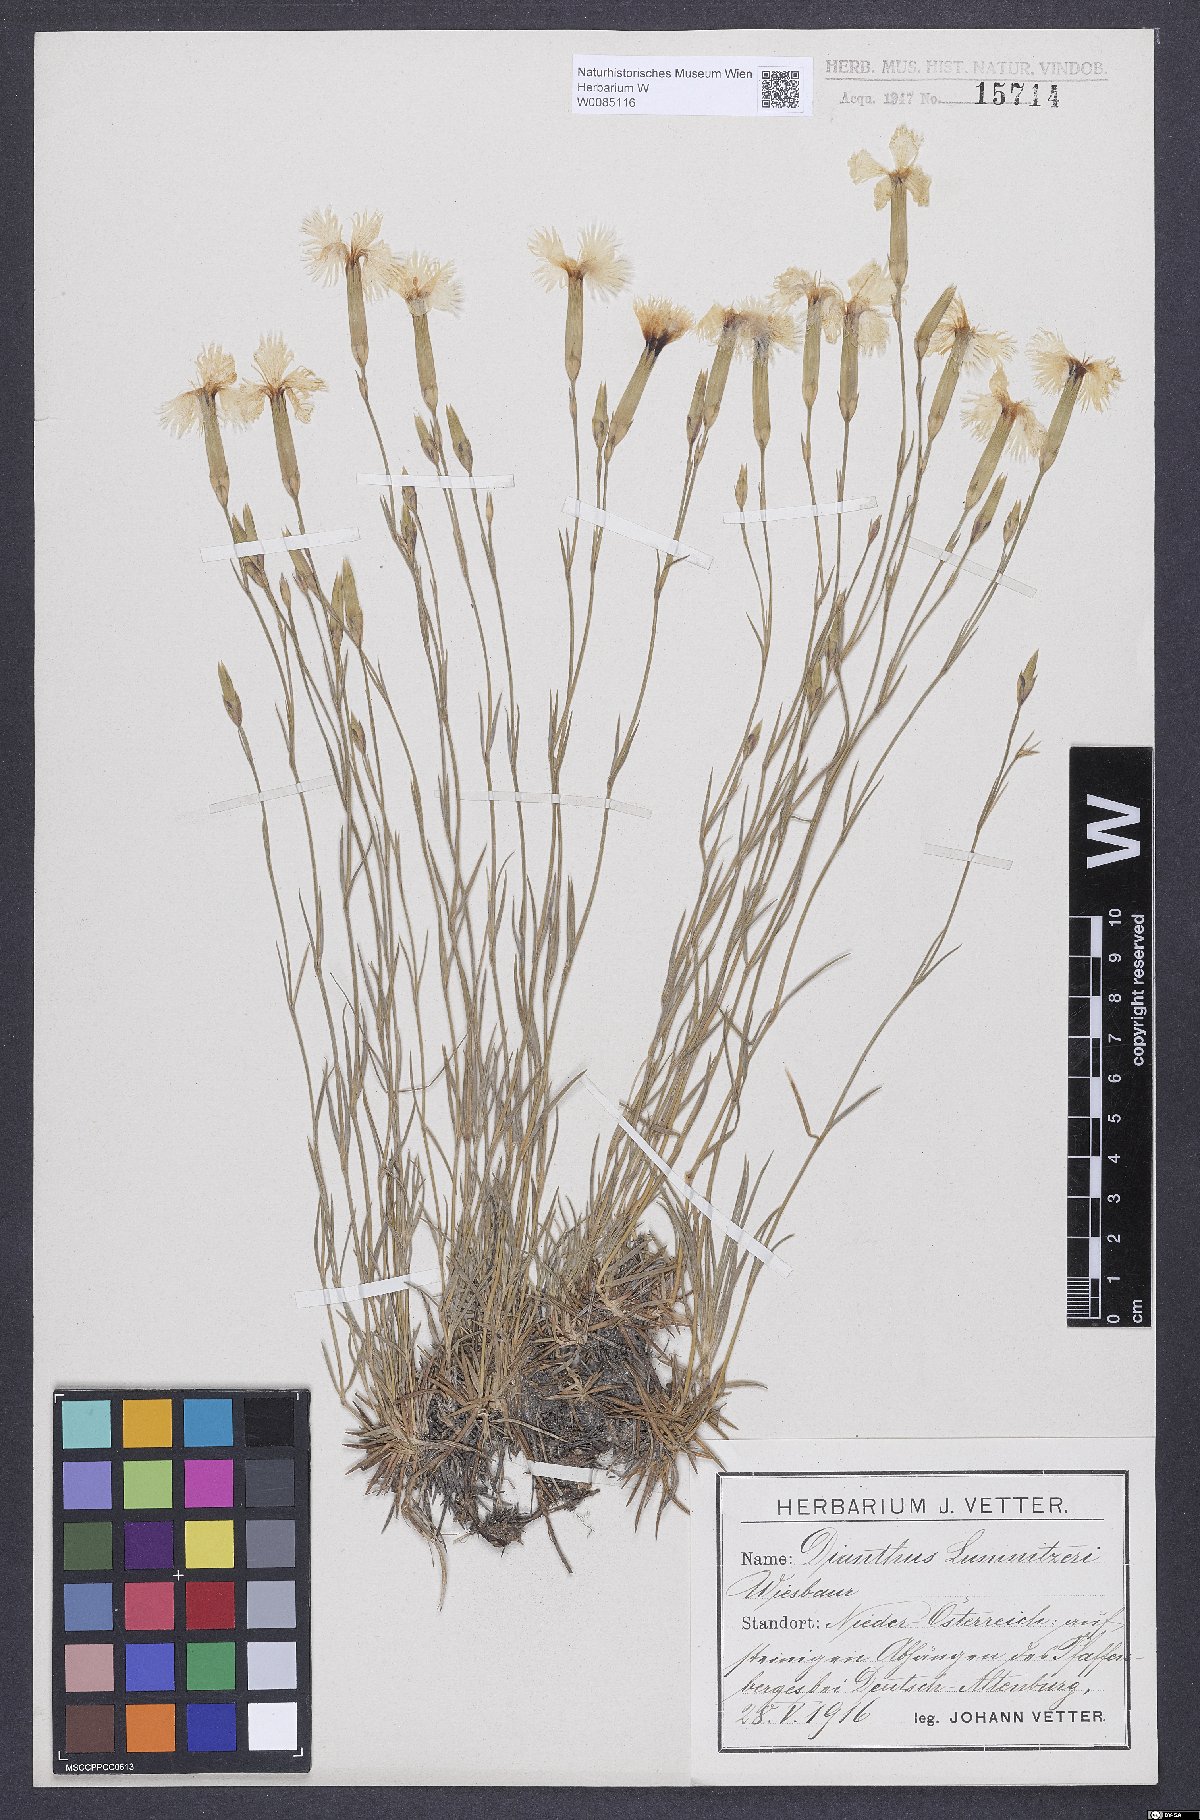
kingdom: Plantae
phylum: Tracheophyta
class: Magnoliopsida
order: Caryophyllales
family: Caryophyllaceae
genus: Dianthus
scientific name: Dianthus praecox
